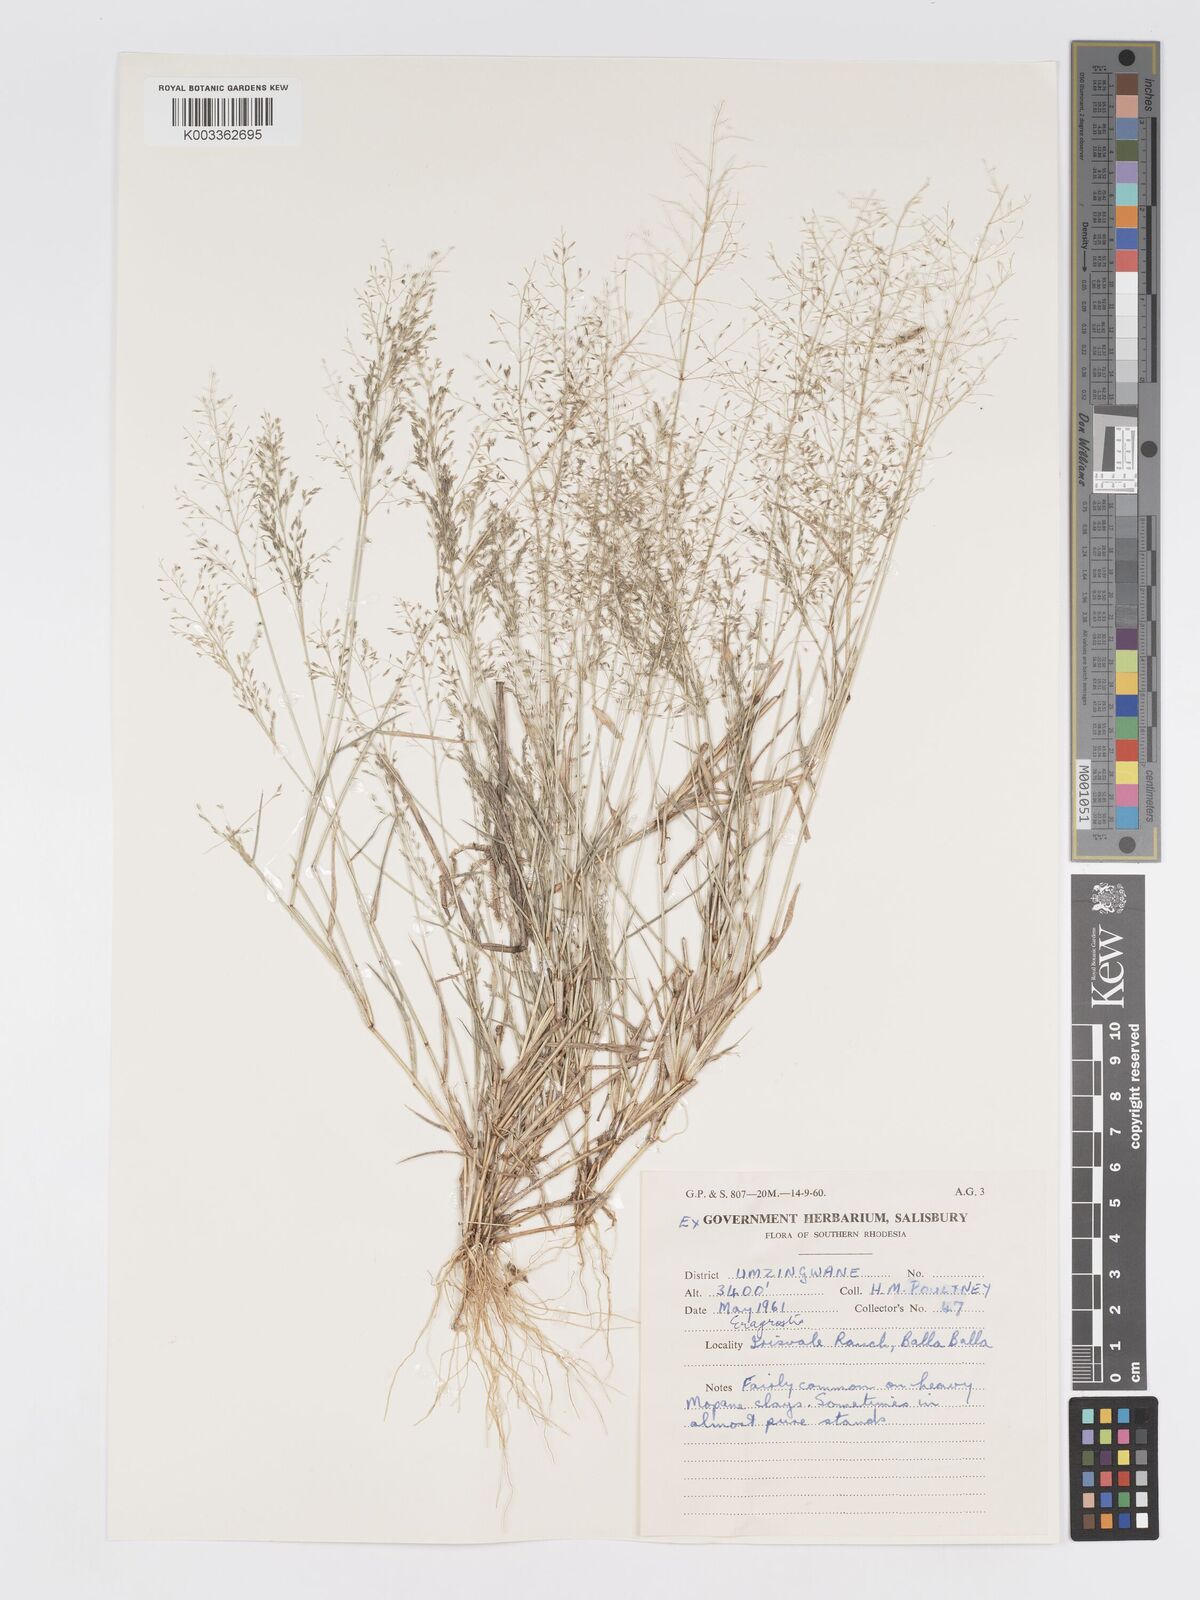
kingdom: Plantae
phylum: Tracheophyta
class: Liliopsida
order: Poales
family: Poaceae
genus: Eragrostis
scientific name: Eragrostis glandulosipedata
